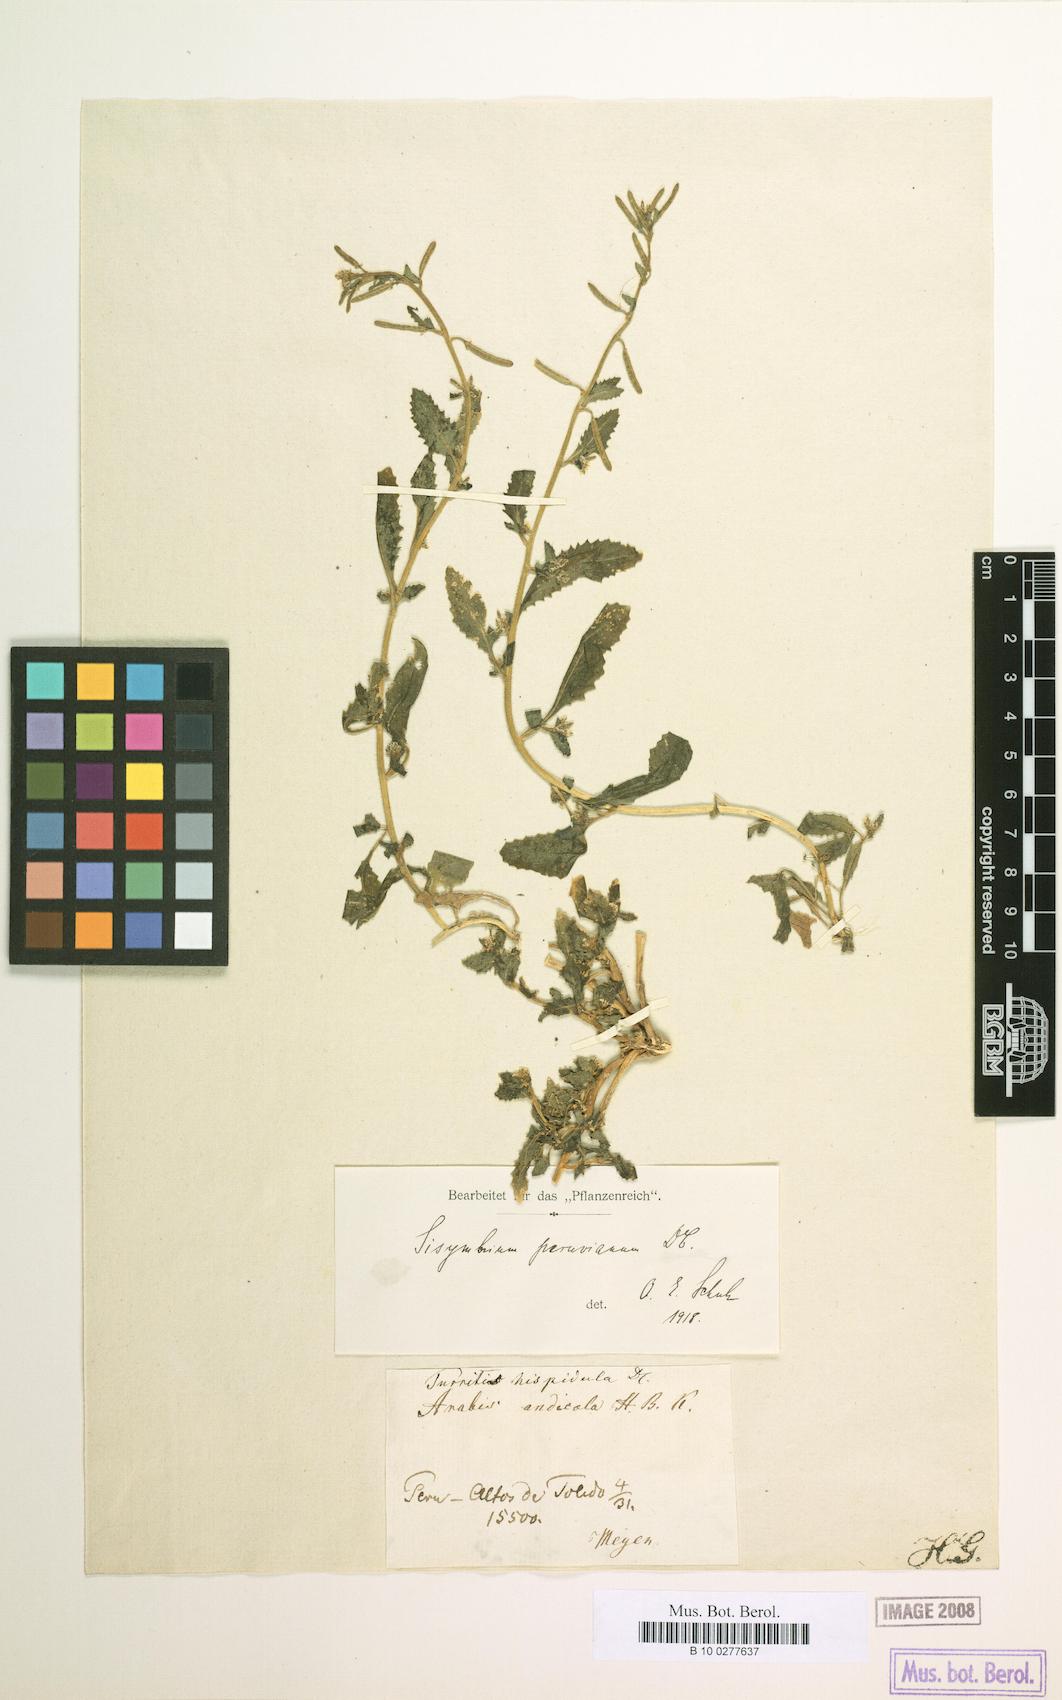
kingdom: Plantae
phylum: Tracheophyta
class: Magnoliopsida
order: Brassicales
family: Brassicaceae
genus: Weberbauera
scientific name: Weberbauera peruviana
